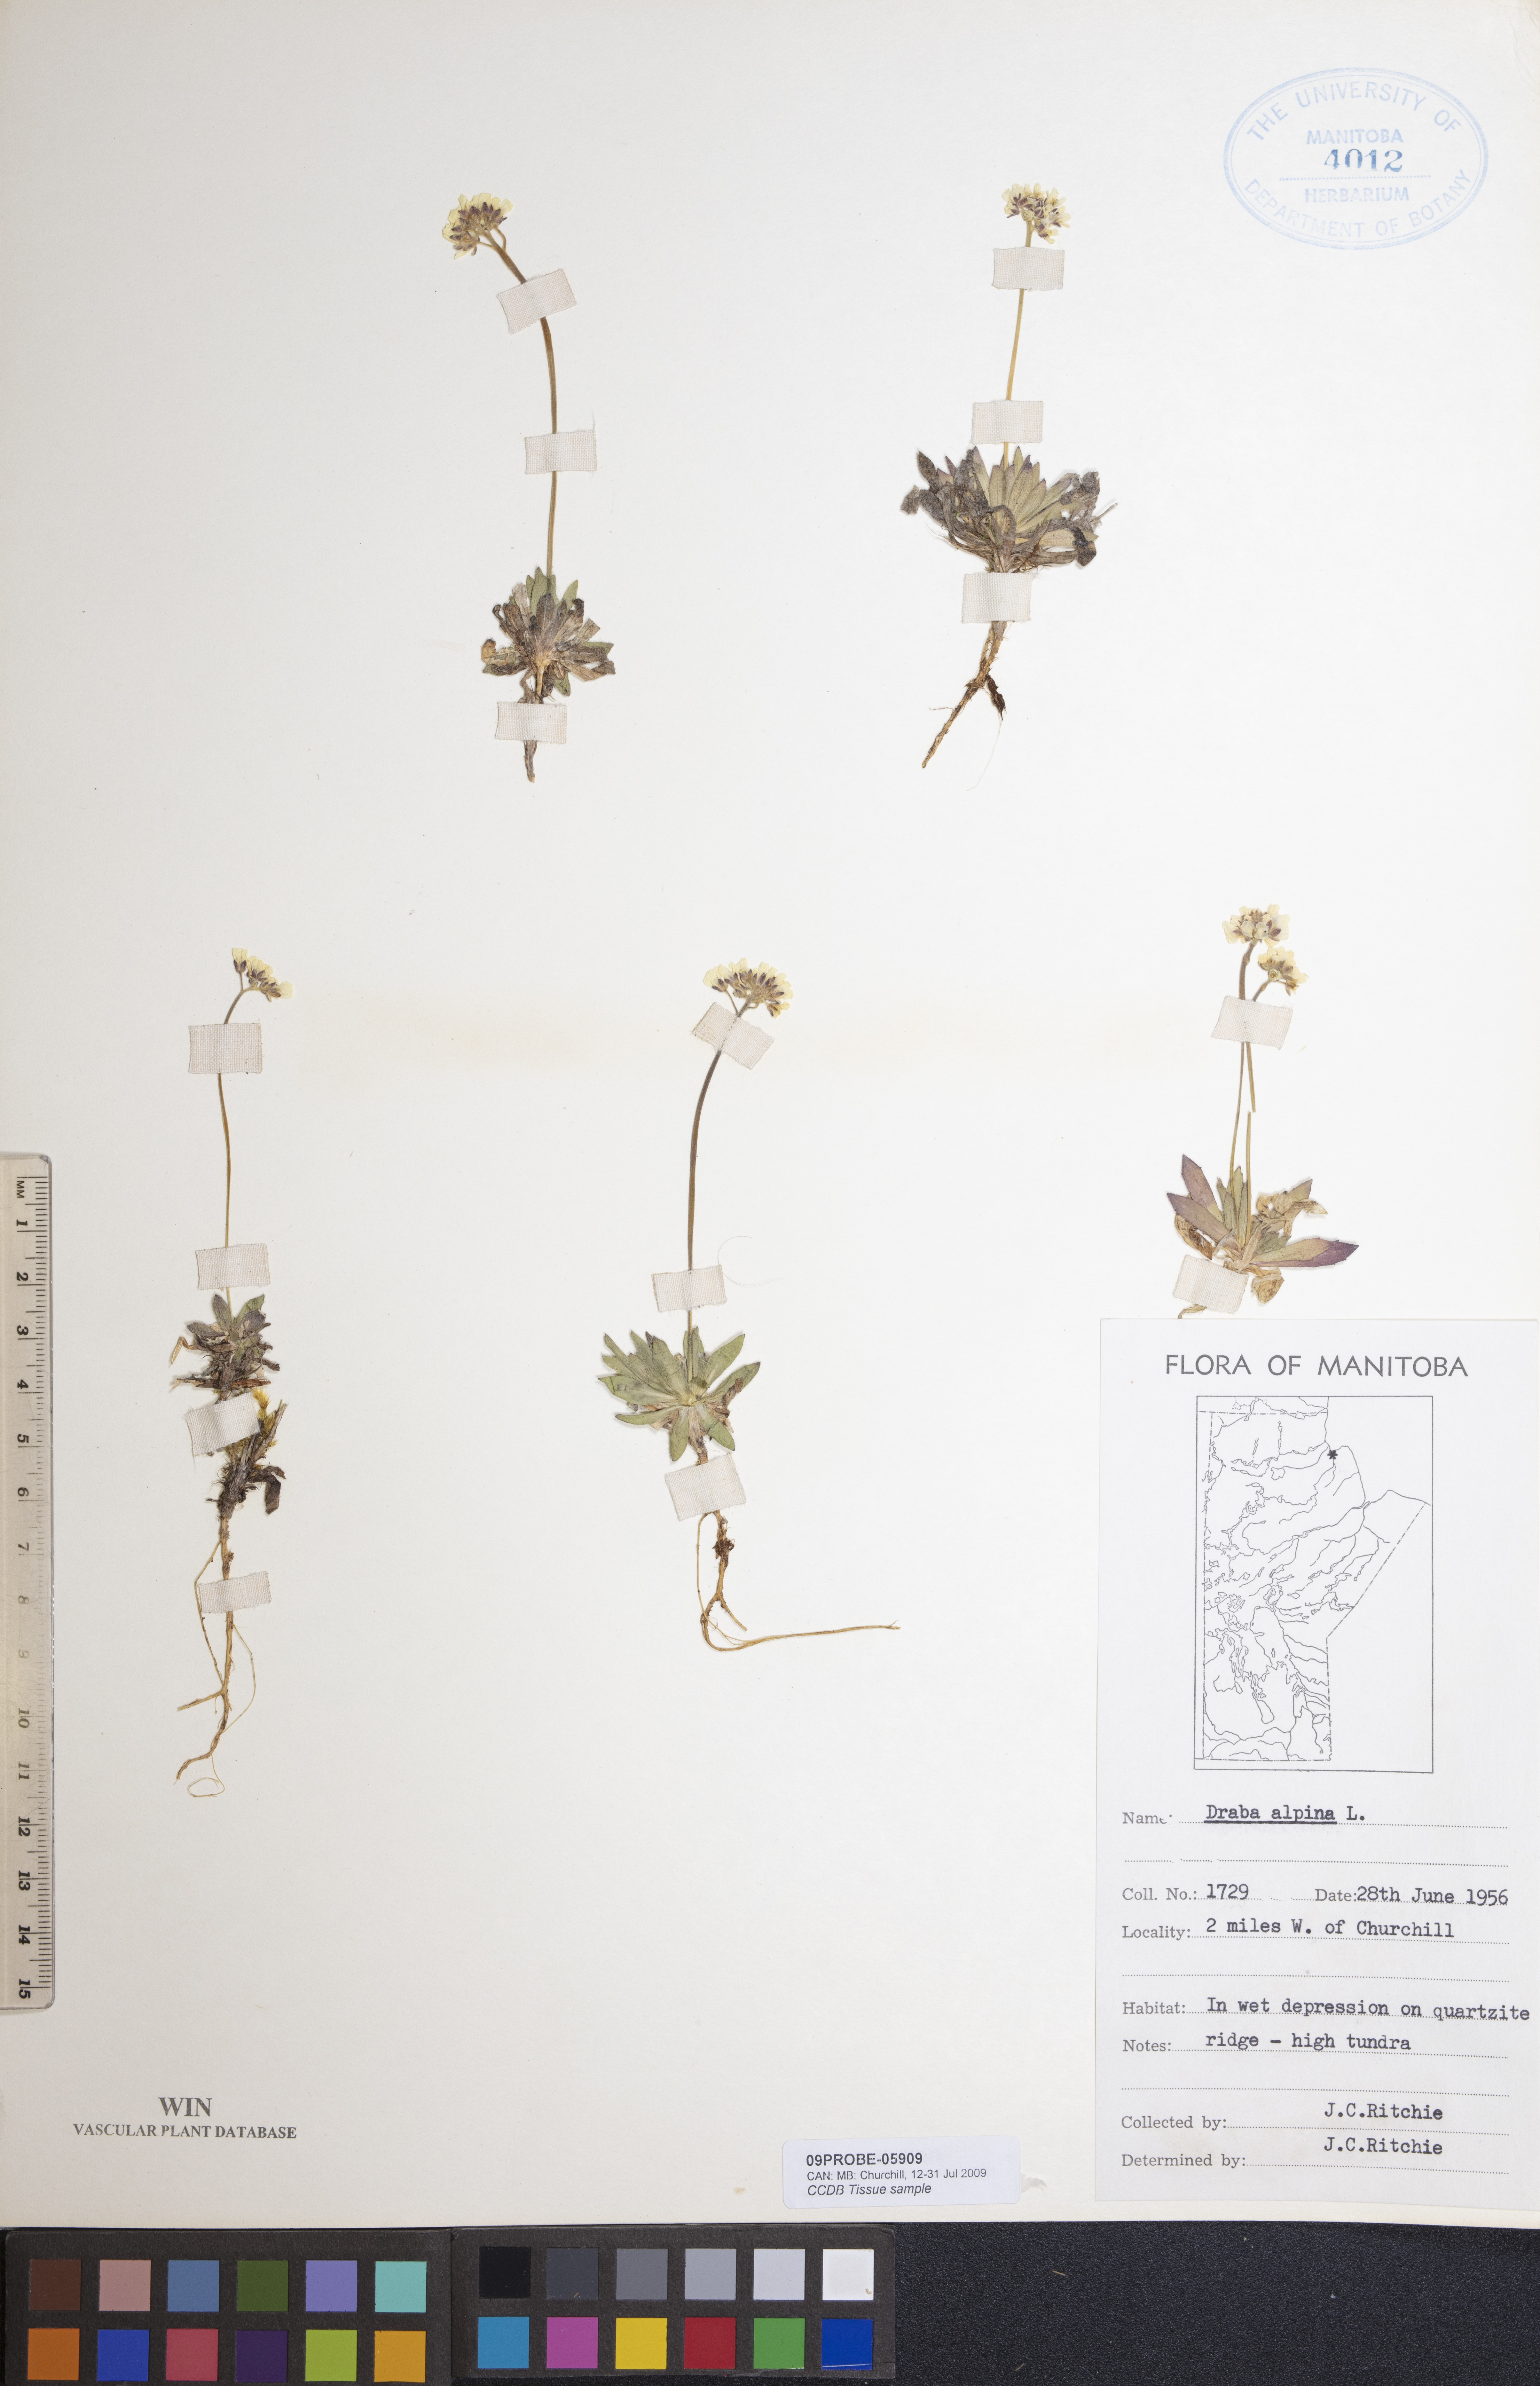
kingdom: Plantae
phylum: Tracheophyta
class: Magnoliopsida
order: Brassicales
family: Brassicaceae
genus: Draba
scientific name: Draba alpina
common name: Alpine draba
